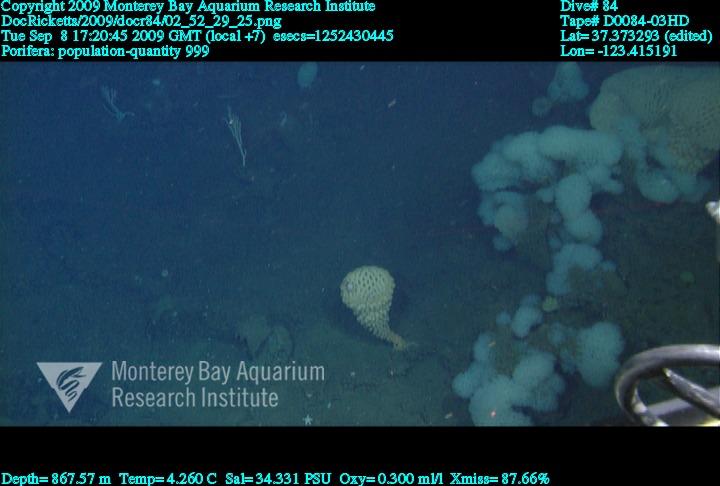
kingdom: Animalia
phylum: Porifera
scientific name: Porifera
